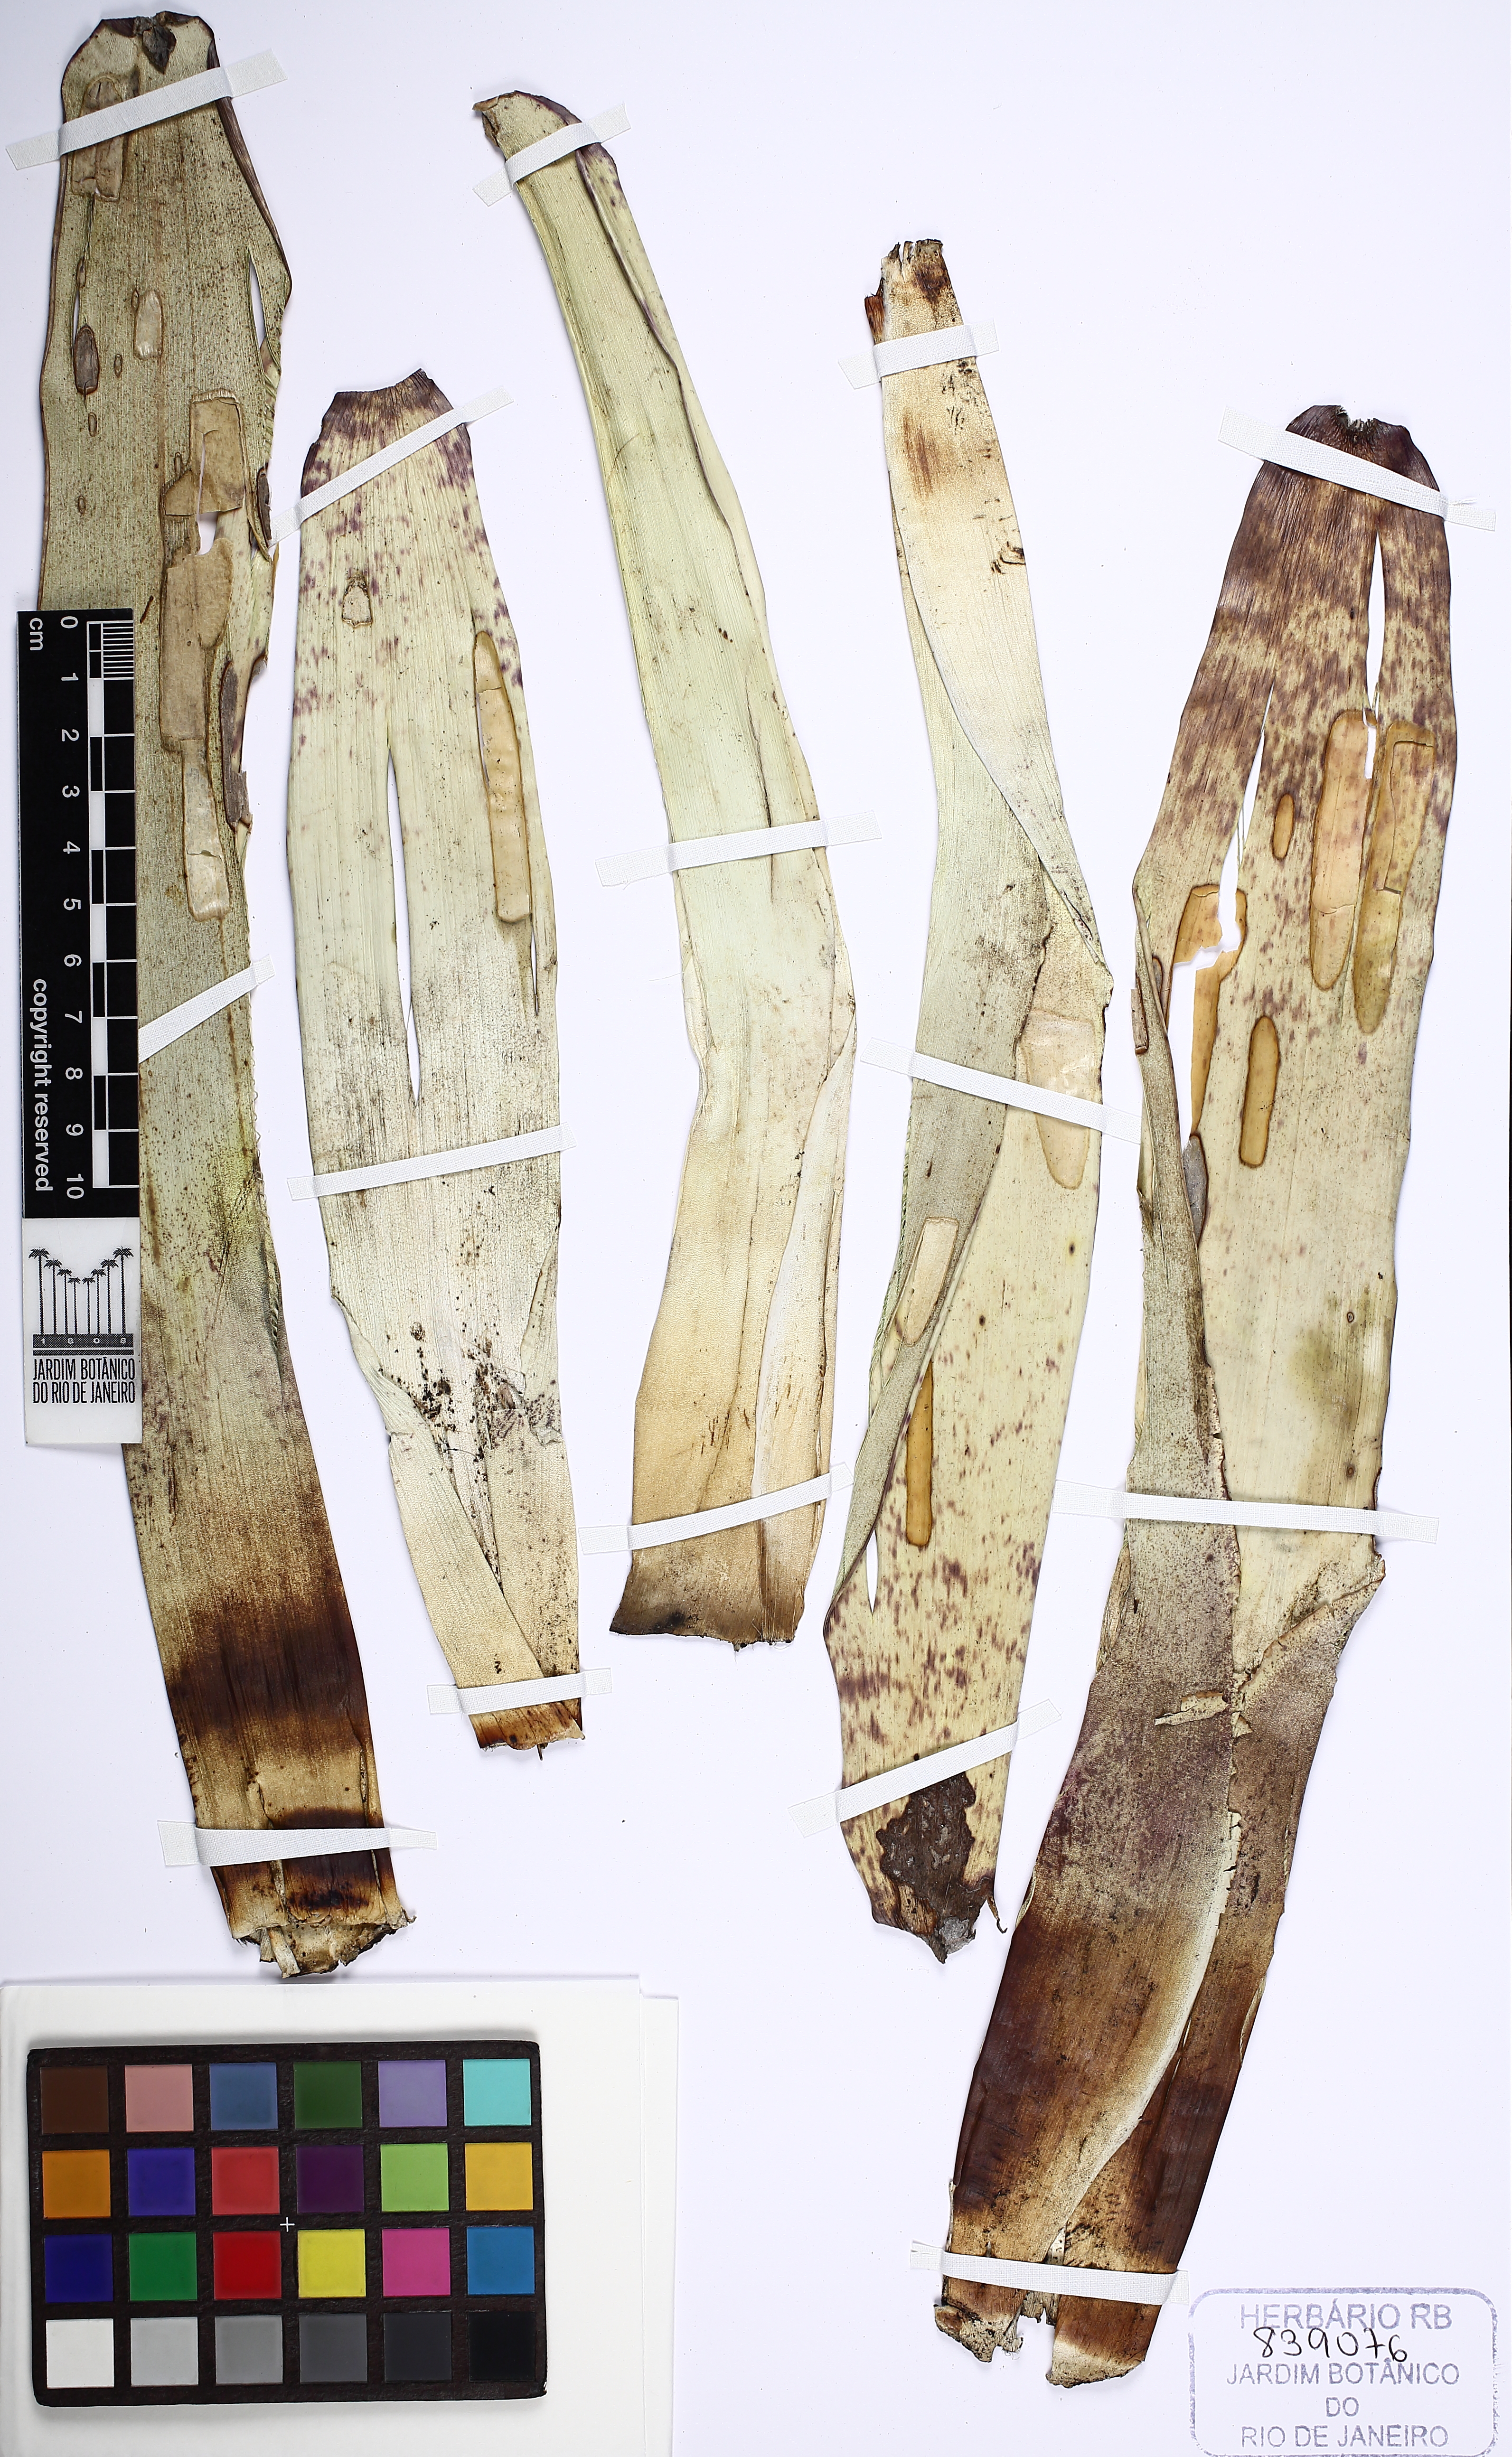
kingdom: Plantae
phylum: Tracheophyta
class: Liliopsida
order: Poales
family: Bromeliaceae
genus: Alcantarea
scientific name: Alcantarea nana
